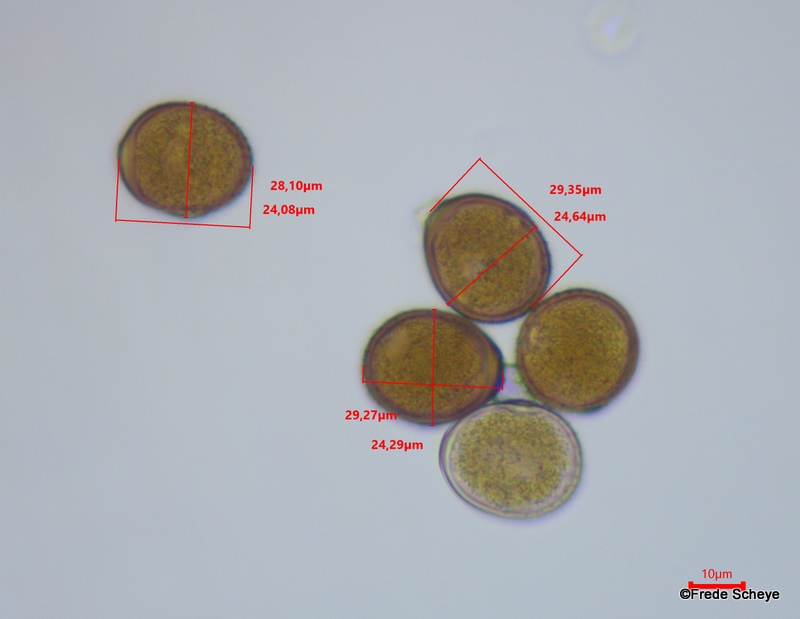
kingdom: Fungi
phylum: Basidiomycota
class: Pucciniomycetes
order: Pucciniales
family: Pucciniaceae
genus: Puccinia
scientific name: Puccinia suaveolens
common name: tidsel-tvecellerust
